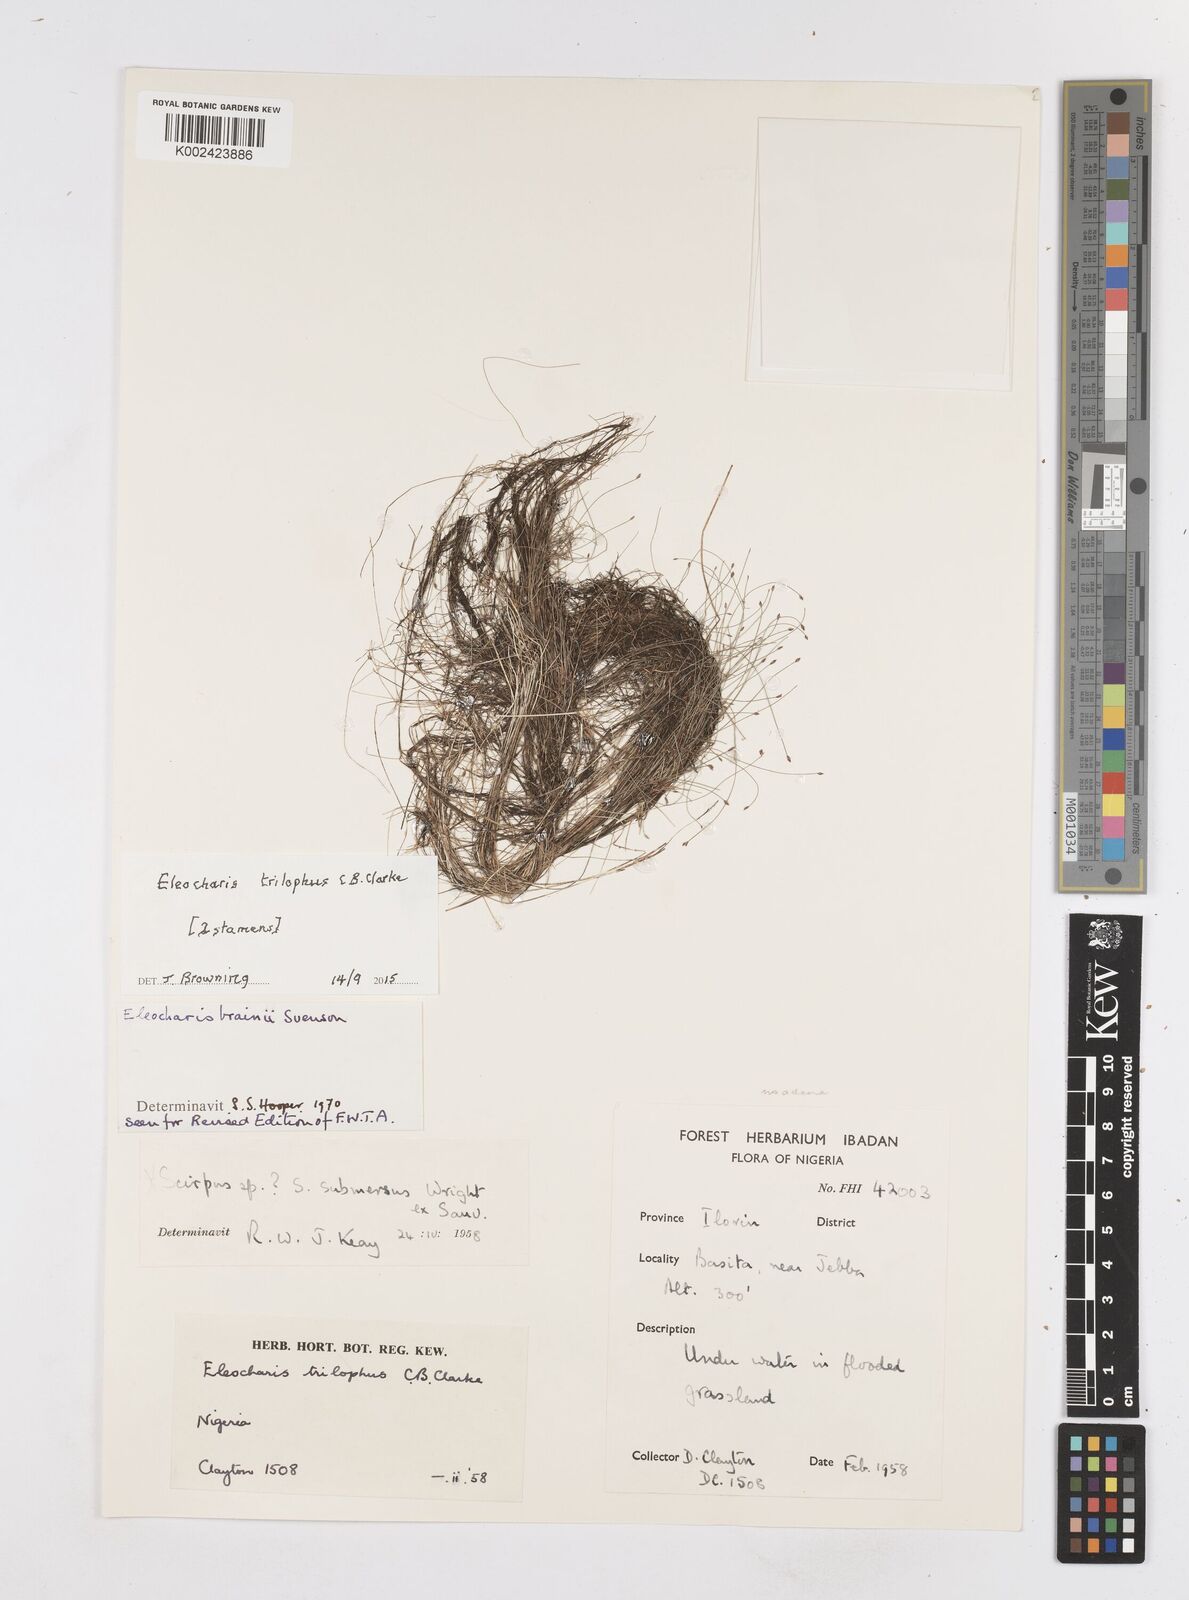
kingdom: Plantae
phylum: Tracheophyta
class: Liliopsida
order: Poales
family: Cyperaceae
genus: Eleocharis
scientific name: Eleocharis trilophus
